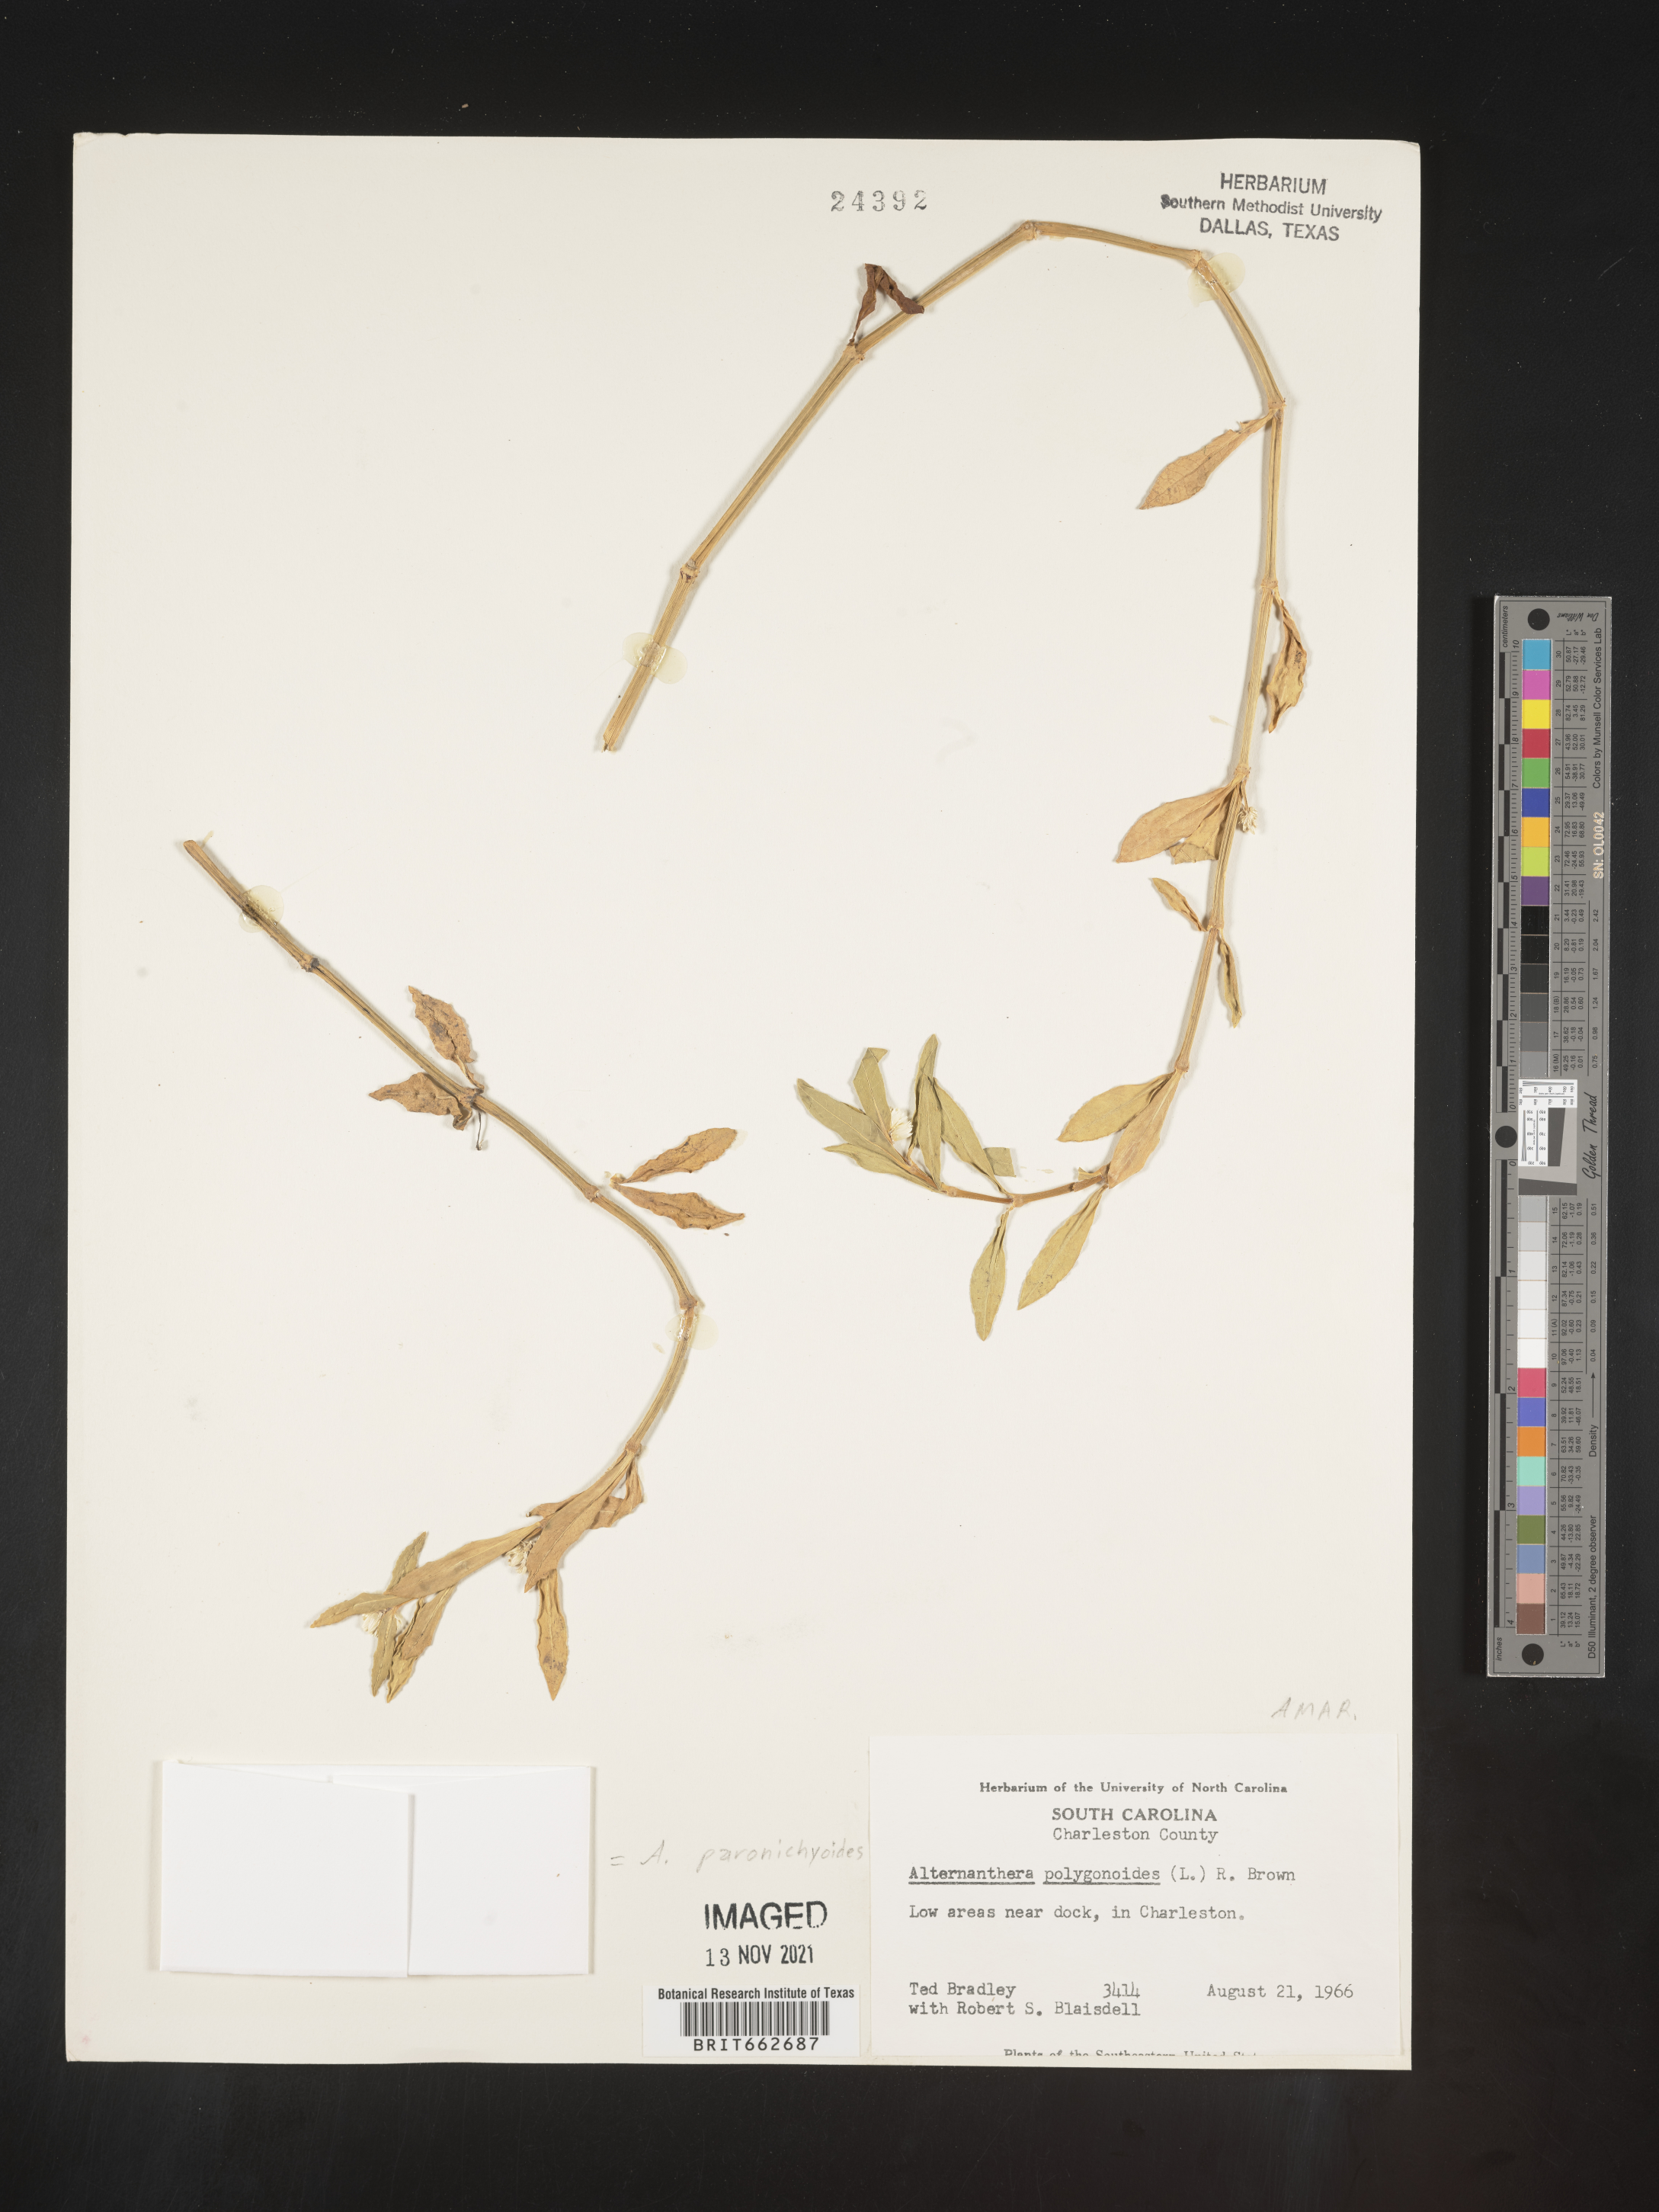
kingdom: Plantae
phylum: Tracheophyta
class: Magnoliopsida
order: Caryophyllales
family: Amaranthaceae
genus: Alternanthera
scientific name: Alternanthera paronychioides
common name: Smooth joyweed
